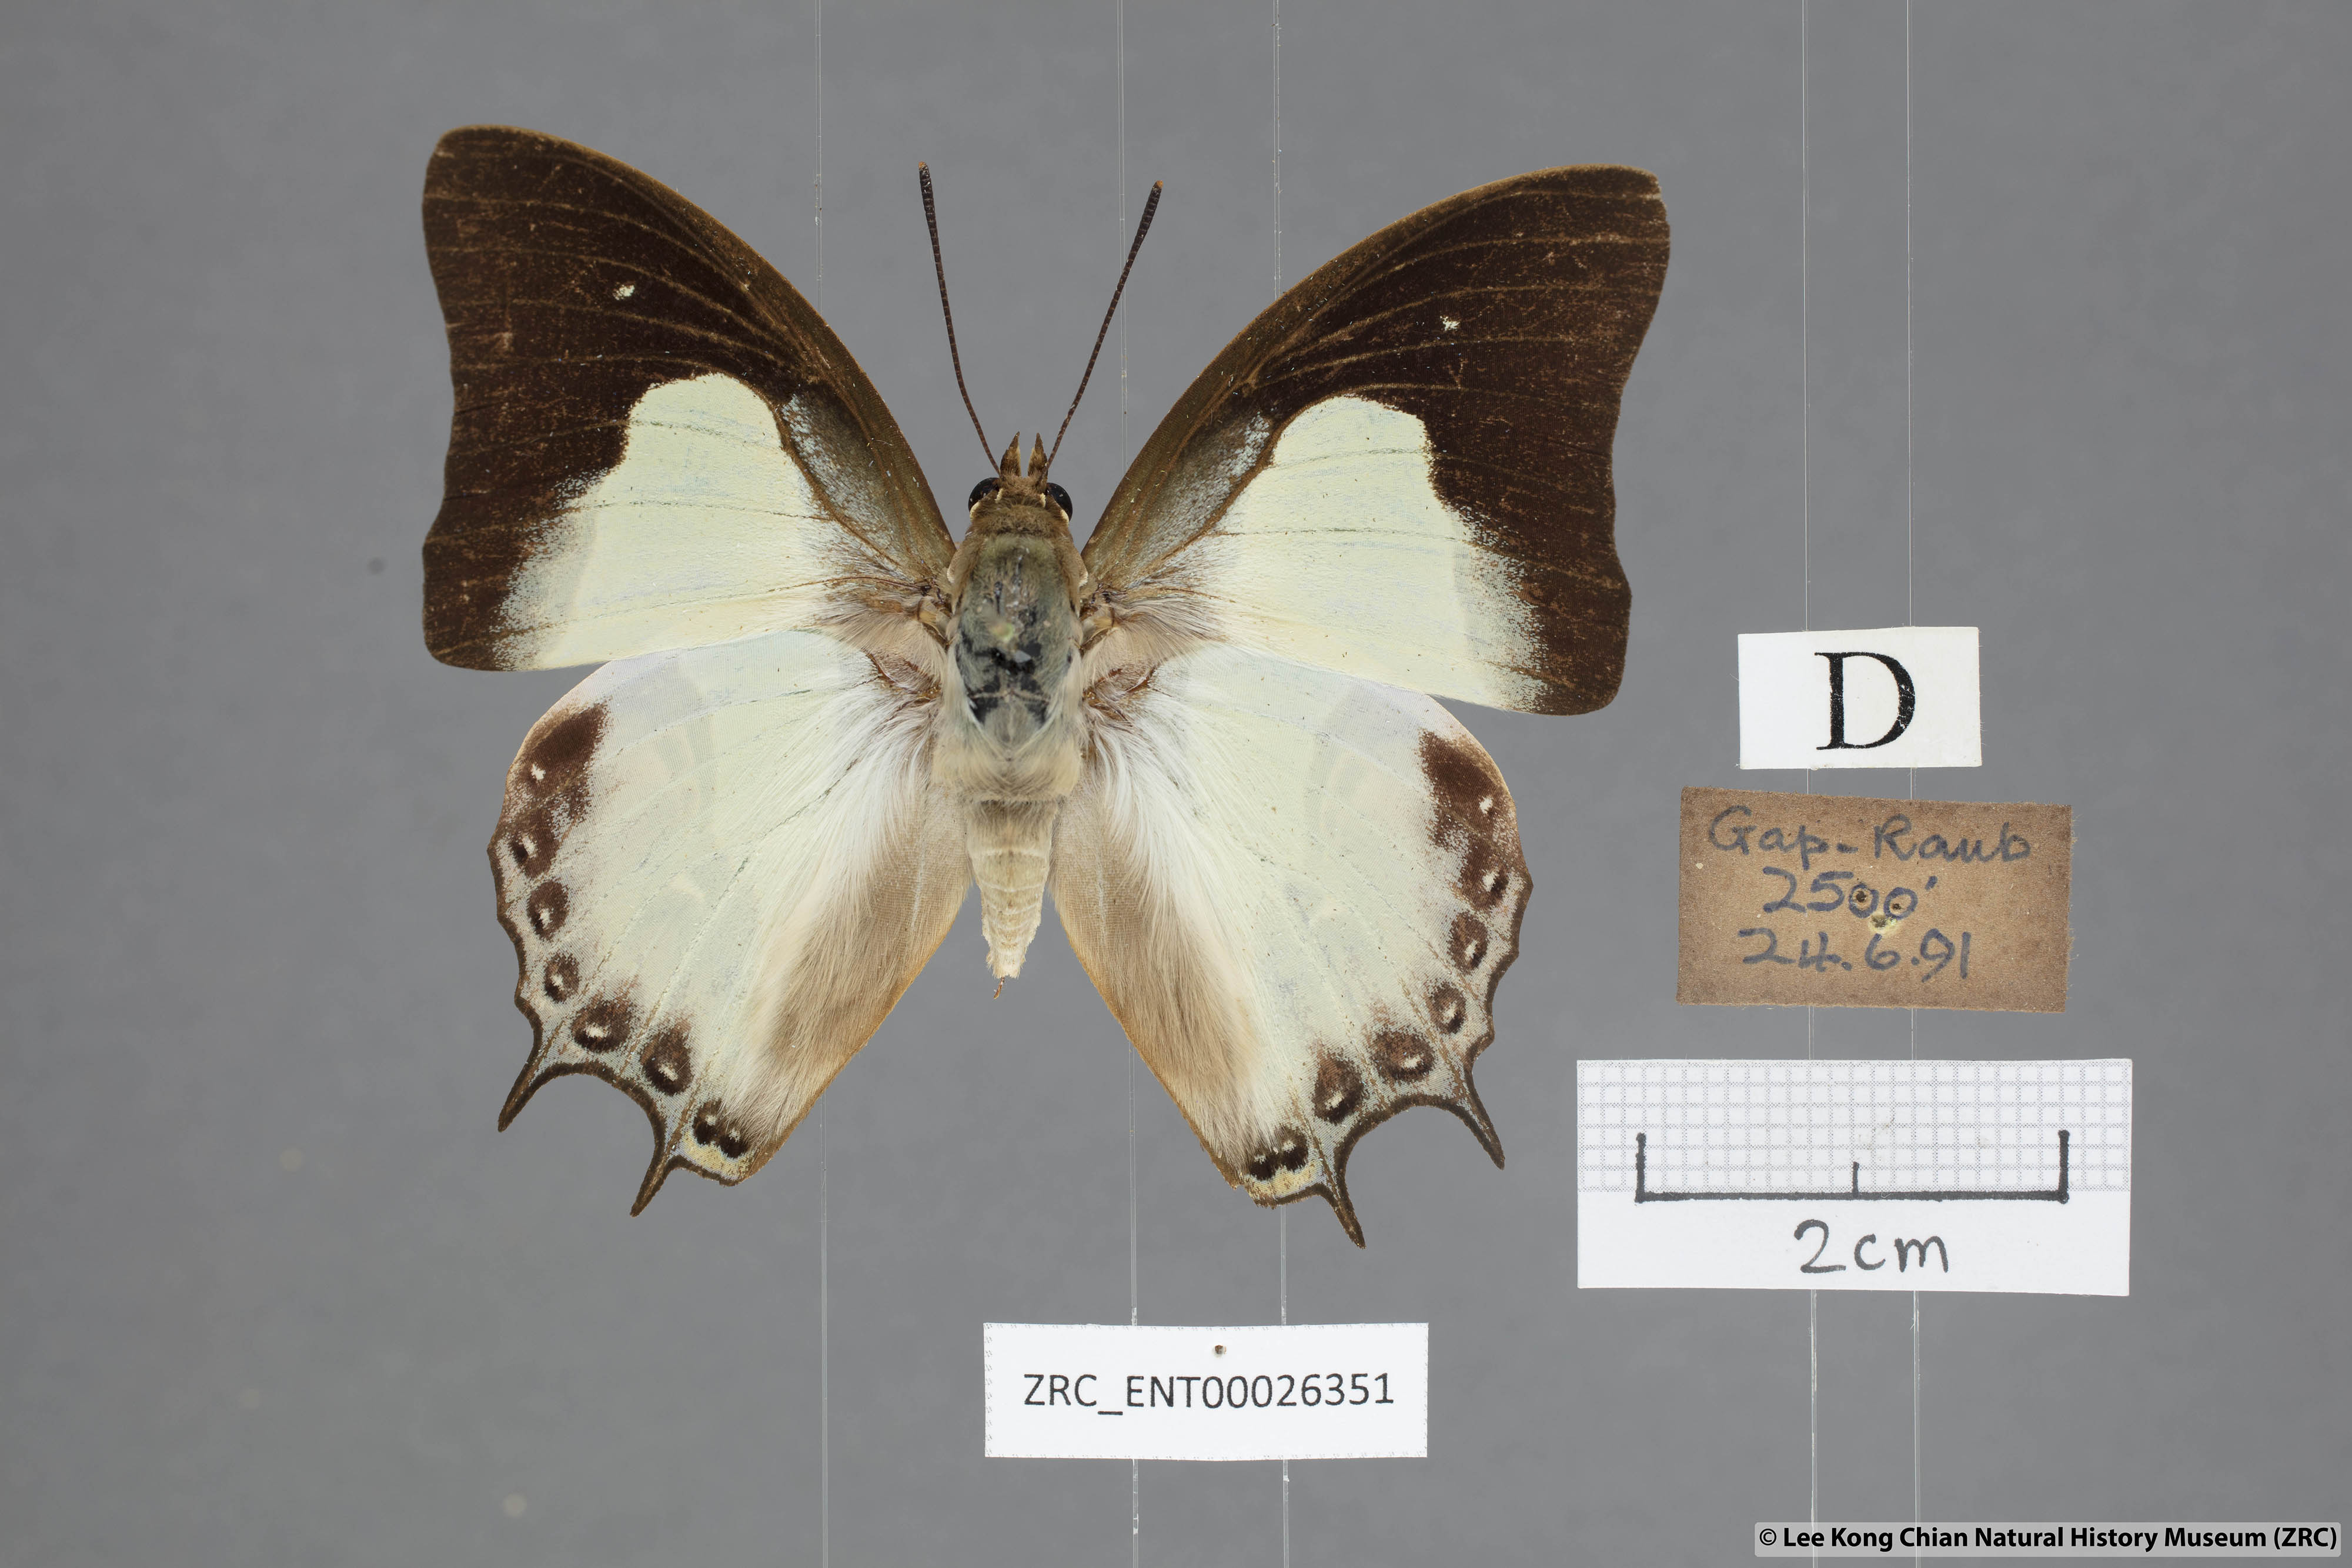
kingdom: Animalia
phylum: Arthropoda
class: Insecta
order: Lepidoptera
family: Nymphalidae
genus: Polyura
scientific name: Polyura hebe
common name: Plain nawab
